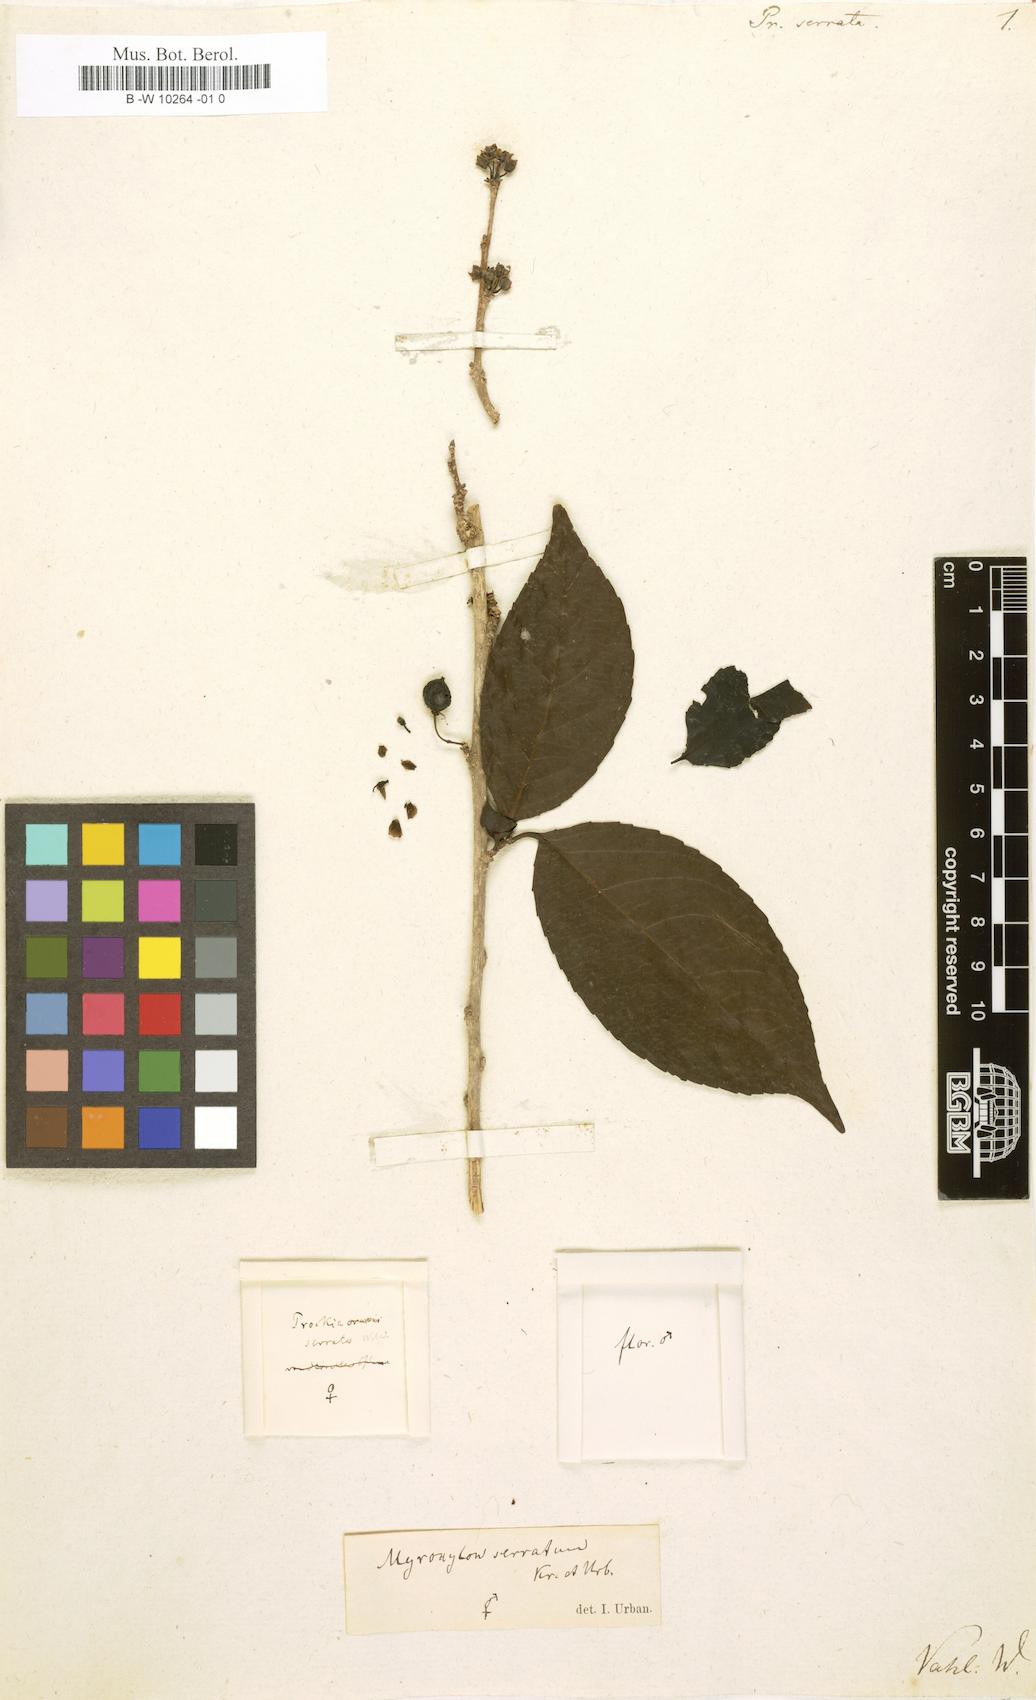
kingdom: Plantae
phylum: Tracheophyta
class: Magnoliopsida
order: Malpighiales
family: Salicaceae
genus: Xylosma
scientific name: Xylosma serrata
